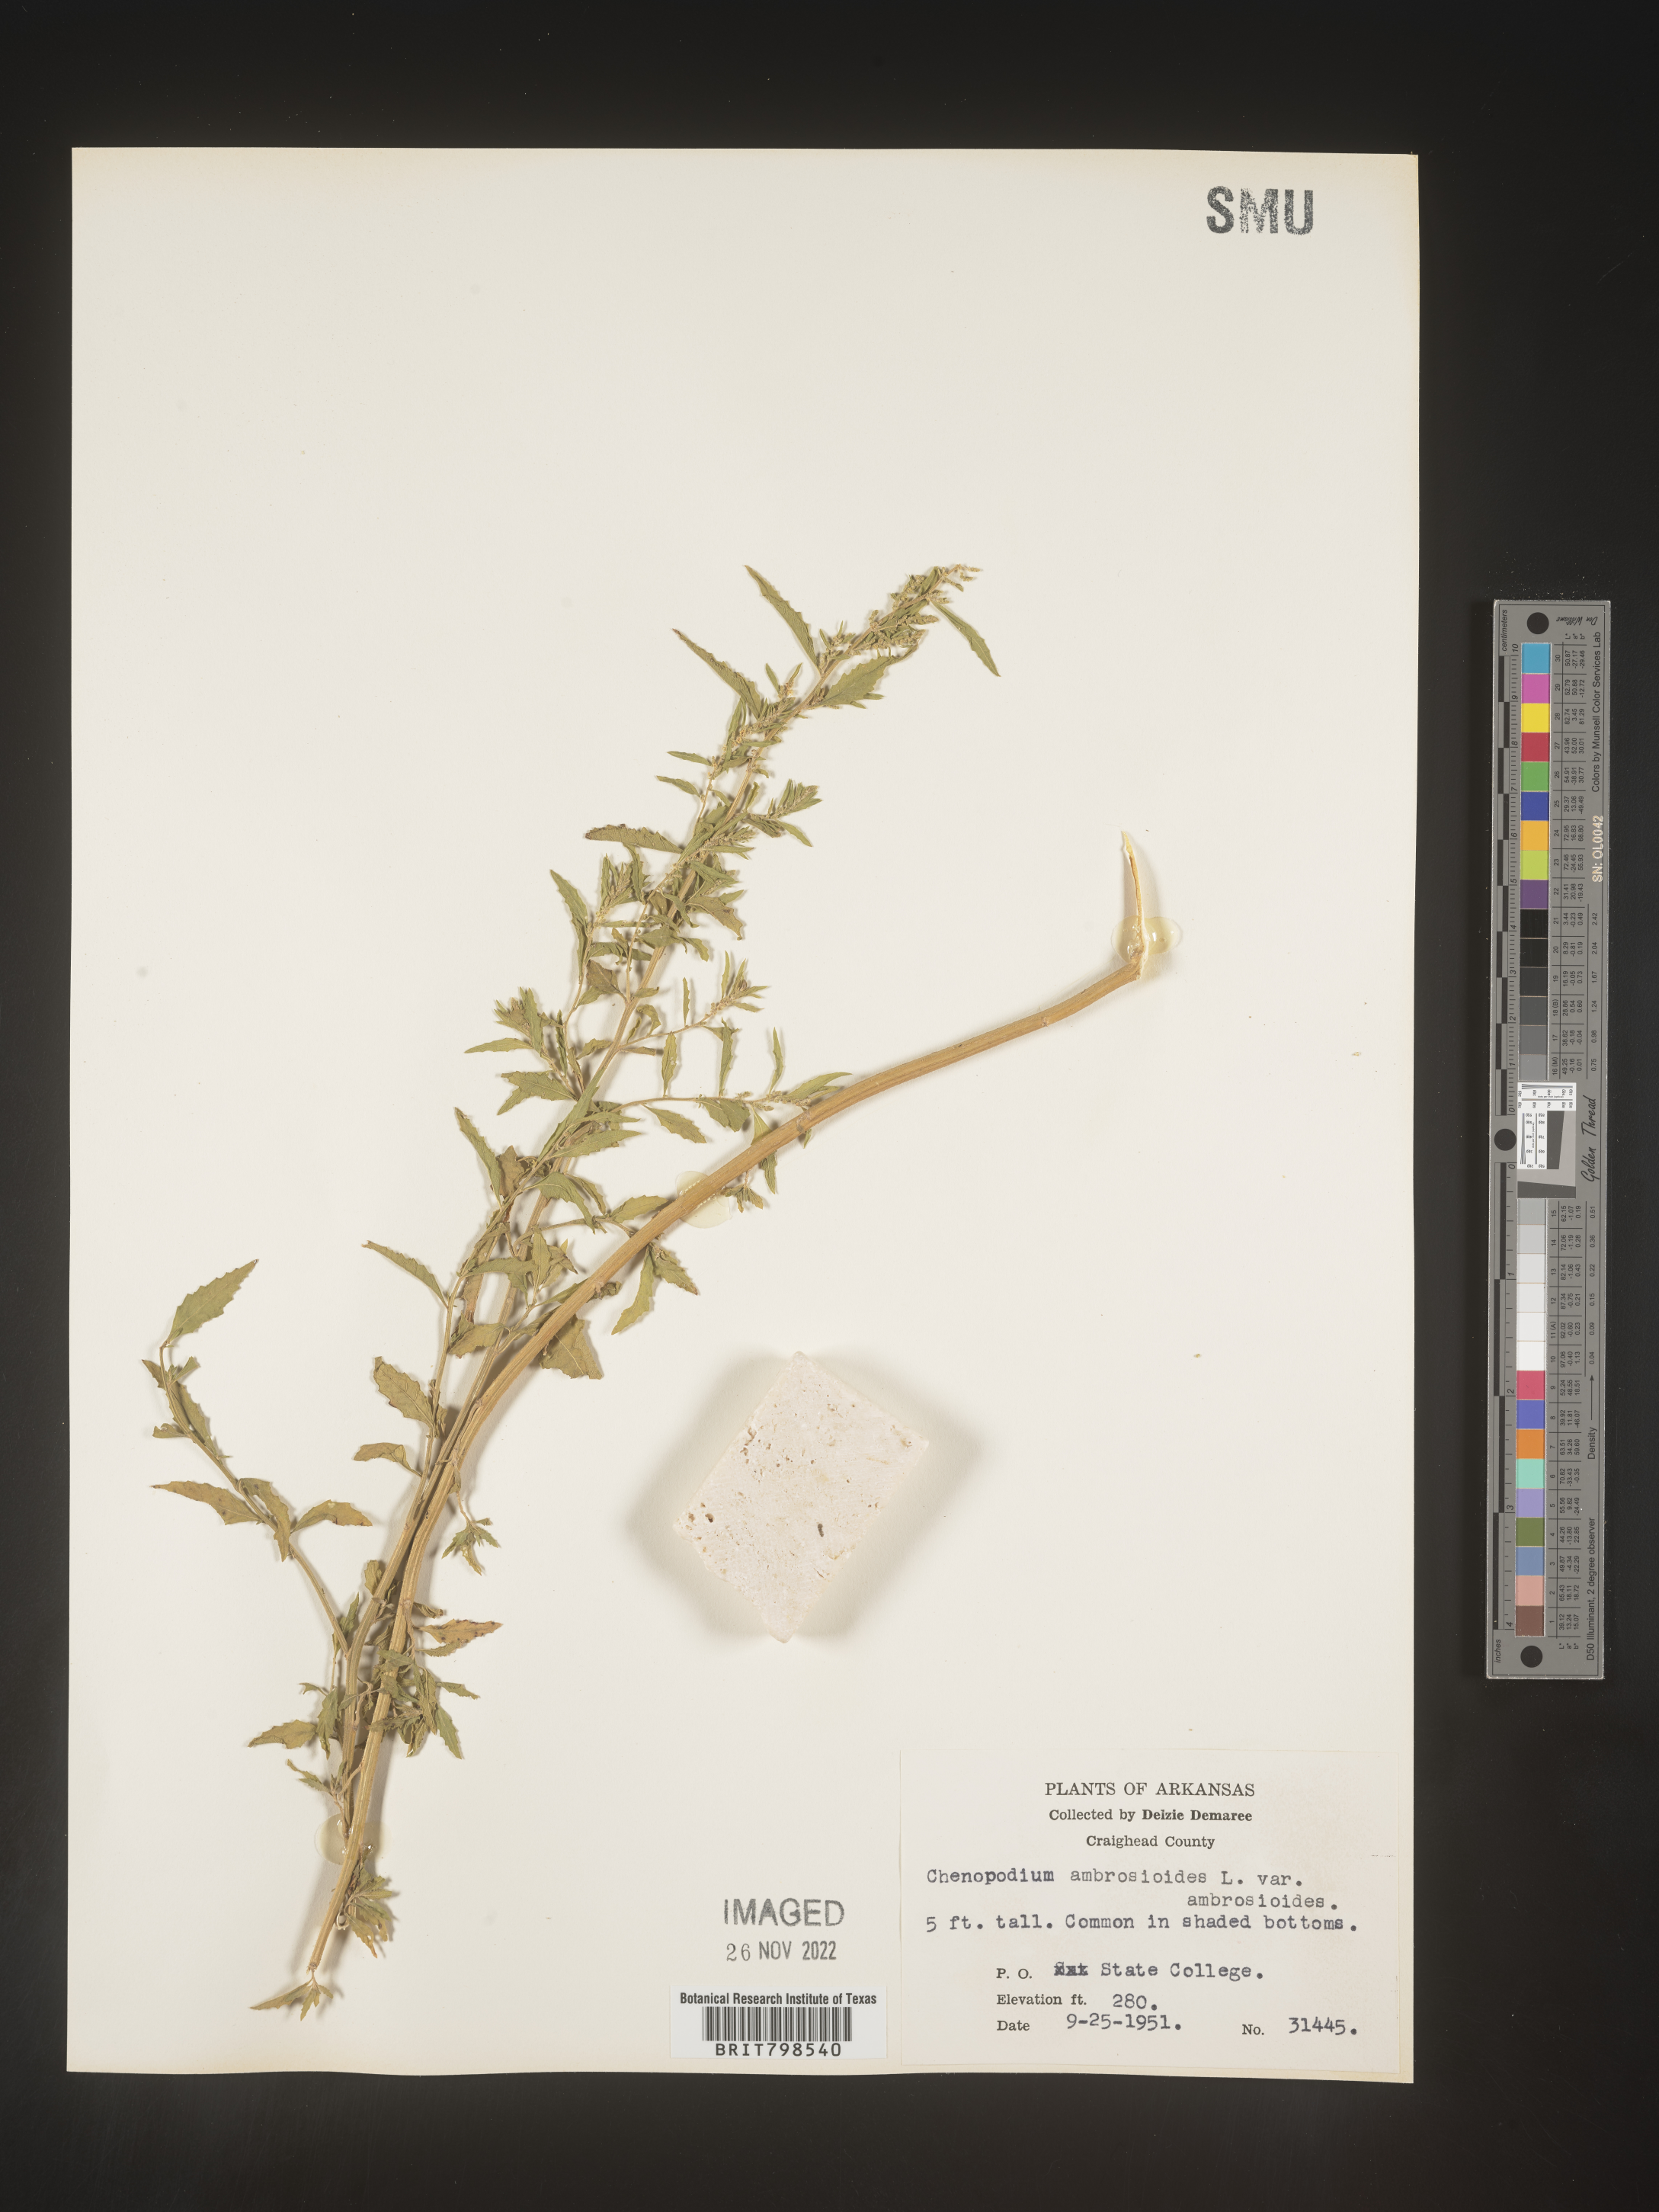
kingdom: Plantae
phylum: Tracheophyta
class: Magnoliopsida
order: Caryophyllales
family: Amaranthaceae
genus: Dysphania
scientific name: Dysphania ambrosioides
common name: Wormseed
